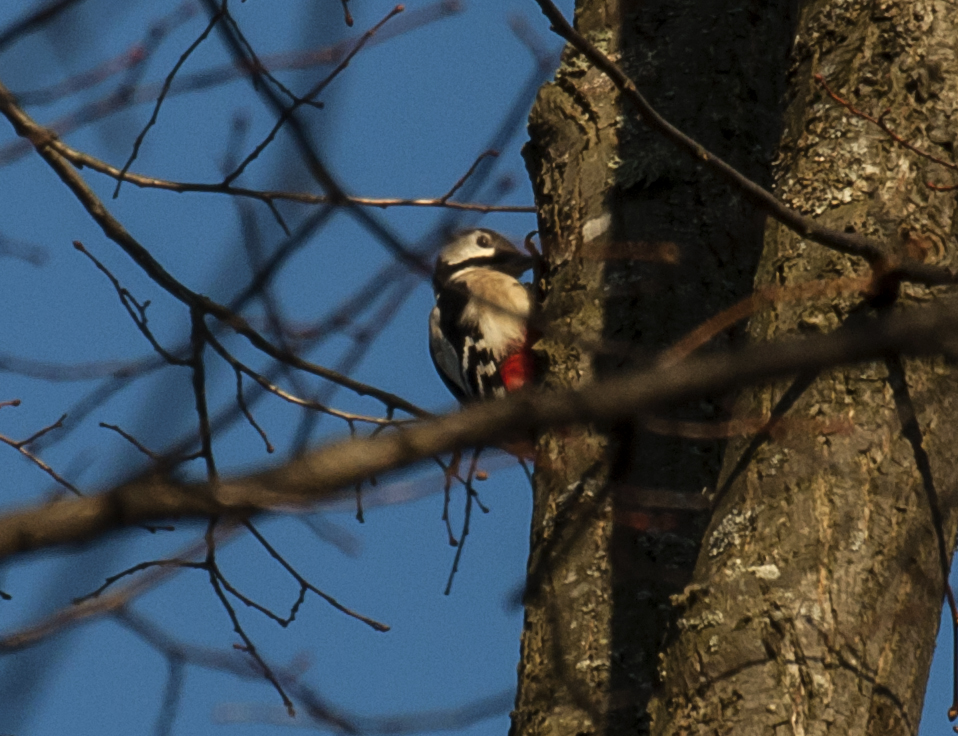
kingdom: Animalia
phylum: Chordata
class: Aves
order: Piciformes
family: Picidae
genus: Dendrocopos
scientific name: Dendrocopos major
